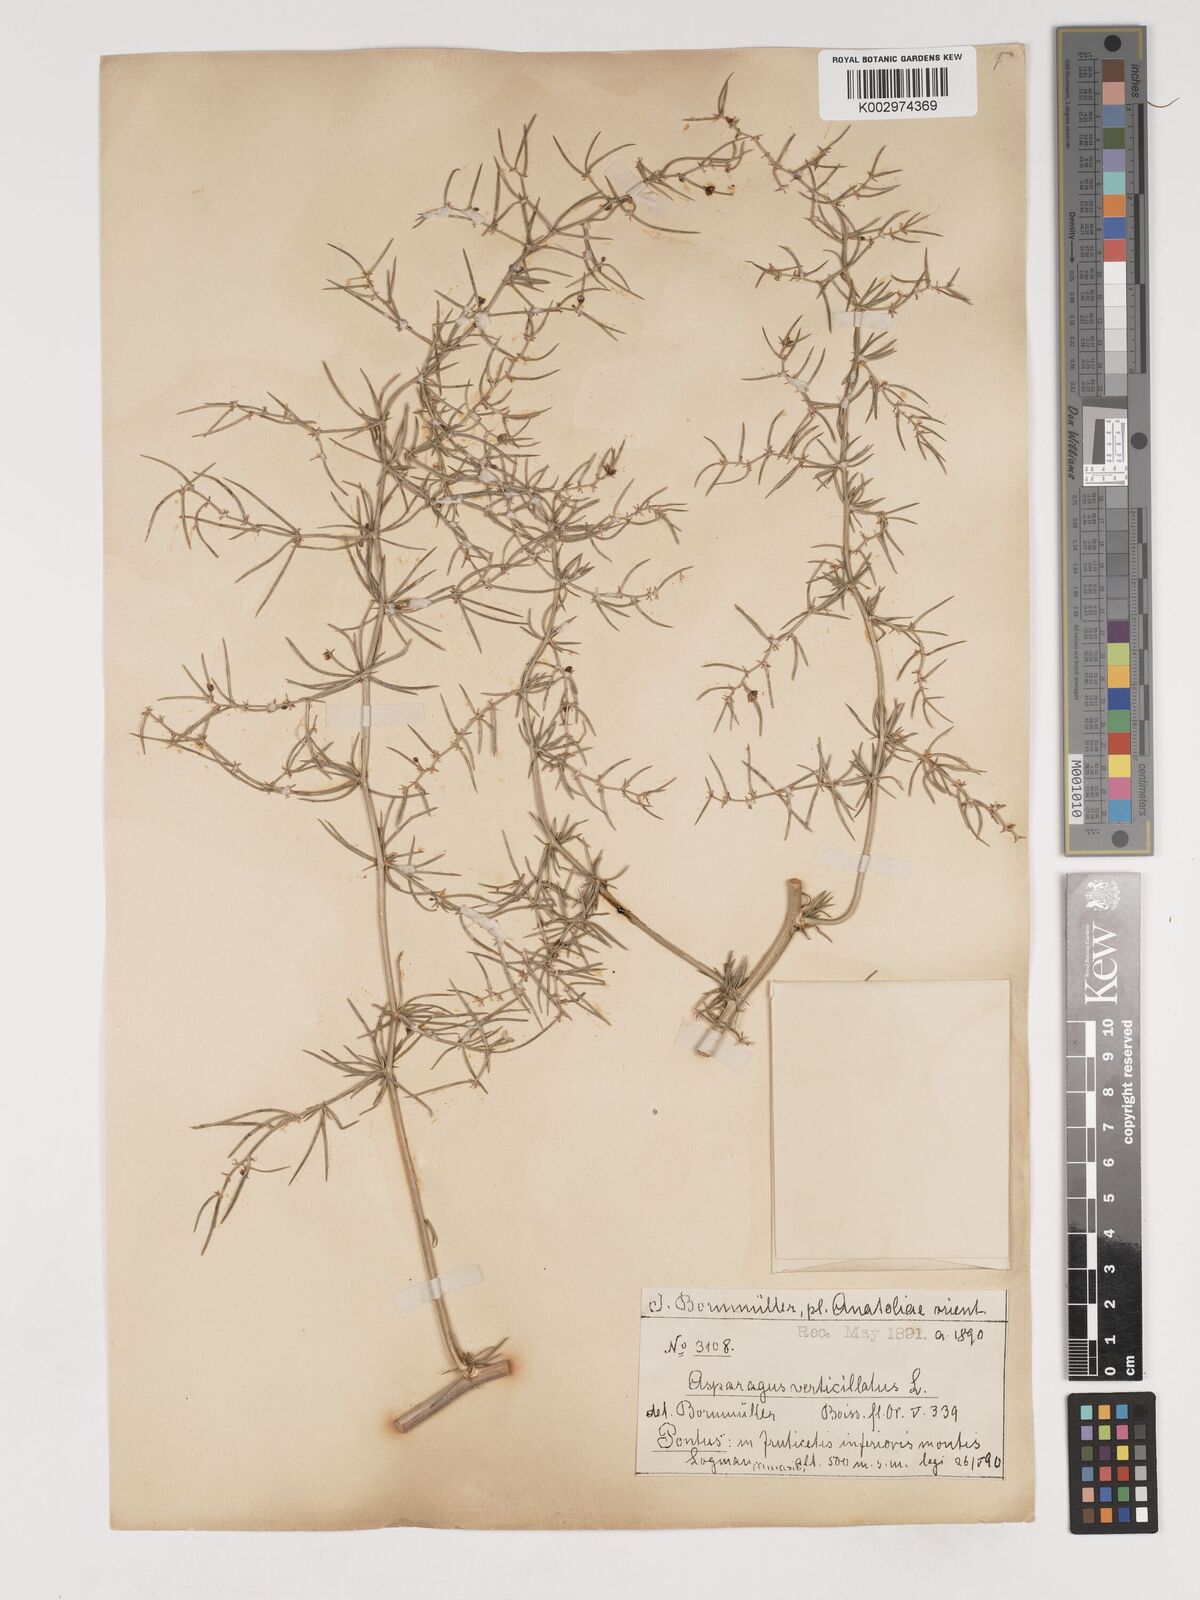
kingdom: Plantae
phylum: Tracheophyta
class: Liliopsida
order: Asparagales
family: Asparagaceae
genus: Asparagus
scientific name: Asparagus verticillatus
